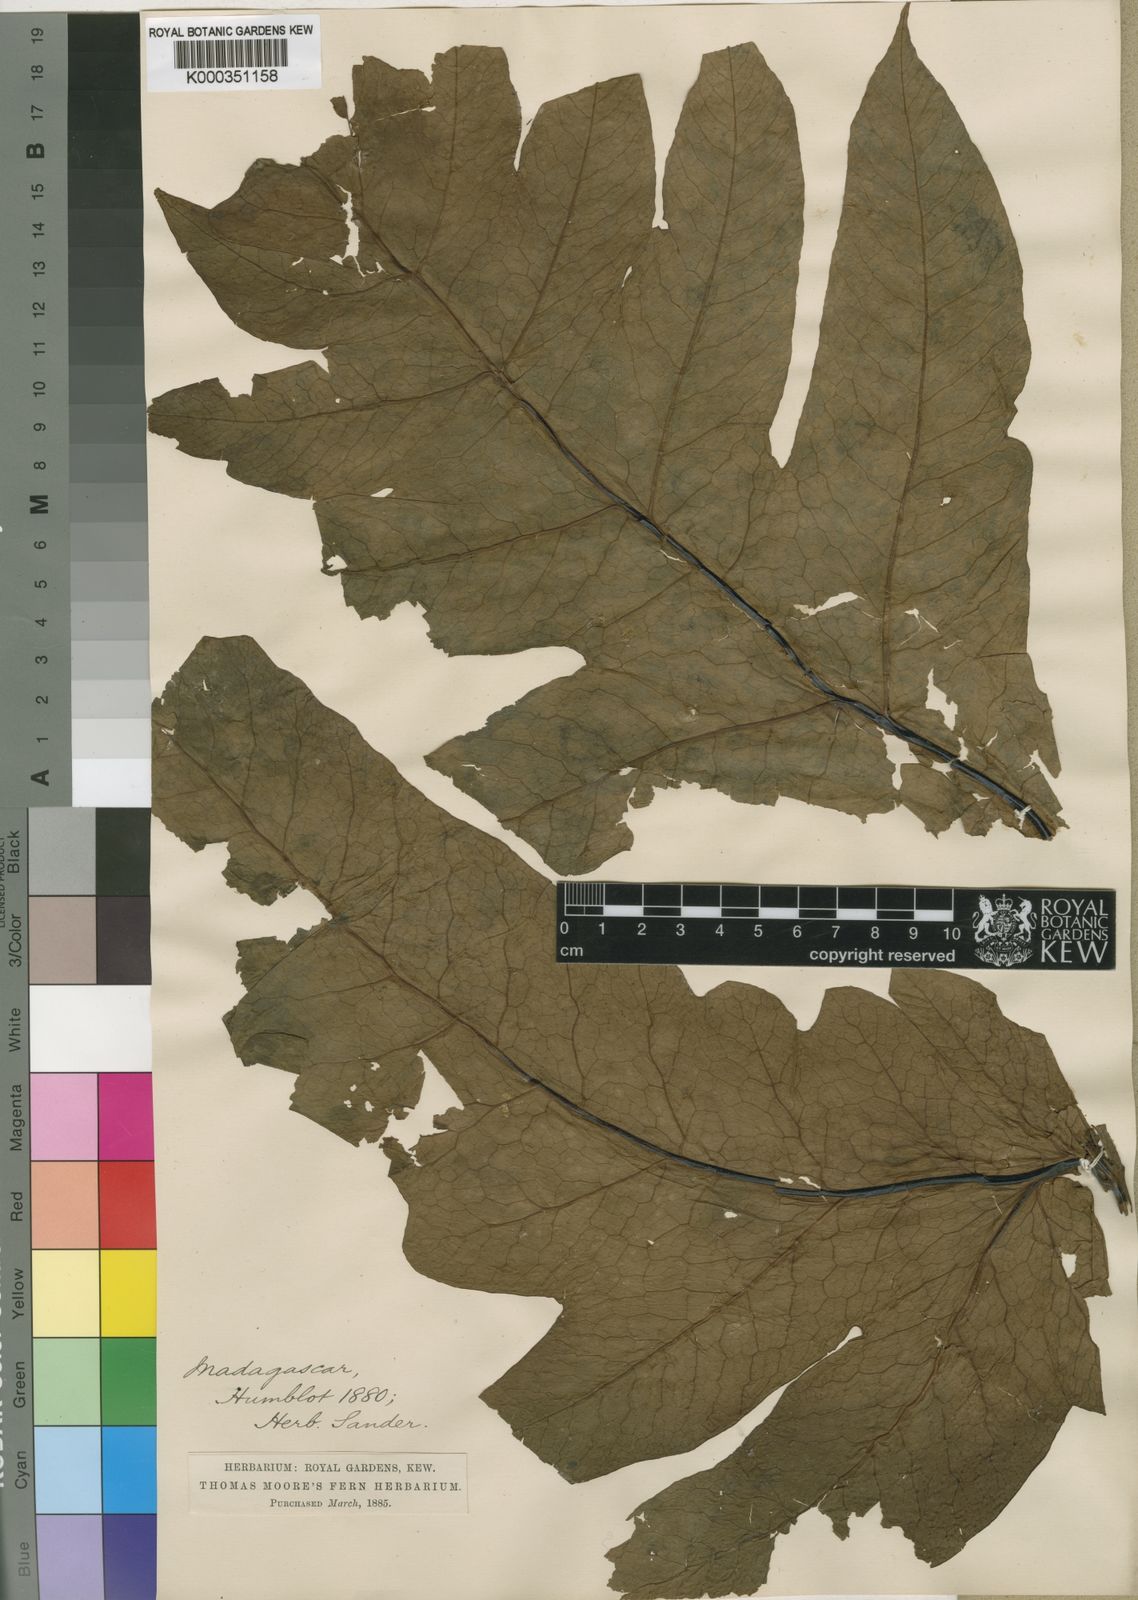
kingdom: Plantae
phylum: Tracheophyta
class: Polypodiopsida
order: Polypodiales
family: Tectariaceae
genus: Tectaria
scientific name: Tectaria lawrenceana
